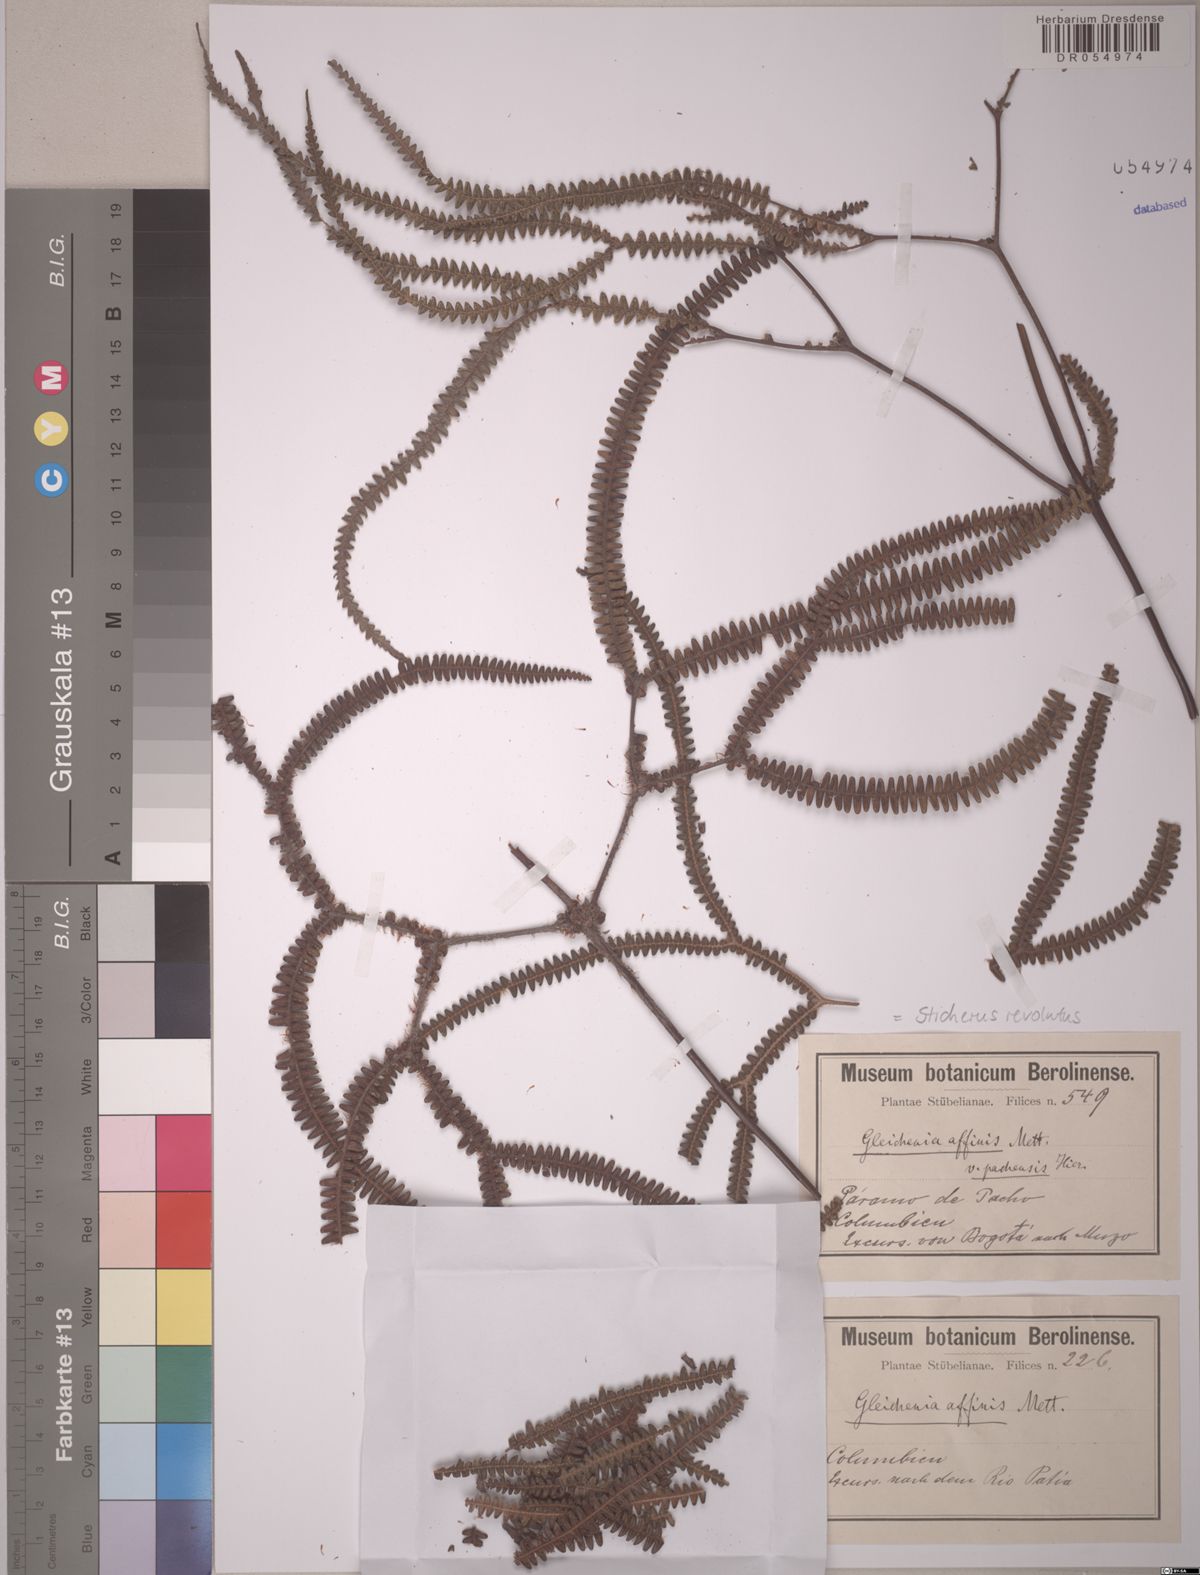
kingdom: Plantae
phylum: Tracheophyta
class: Polypodiopsida
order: Gleicheniales
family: Gleicheniaceae
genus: Sticherus
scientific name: Sticherus revolutus
